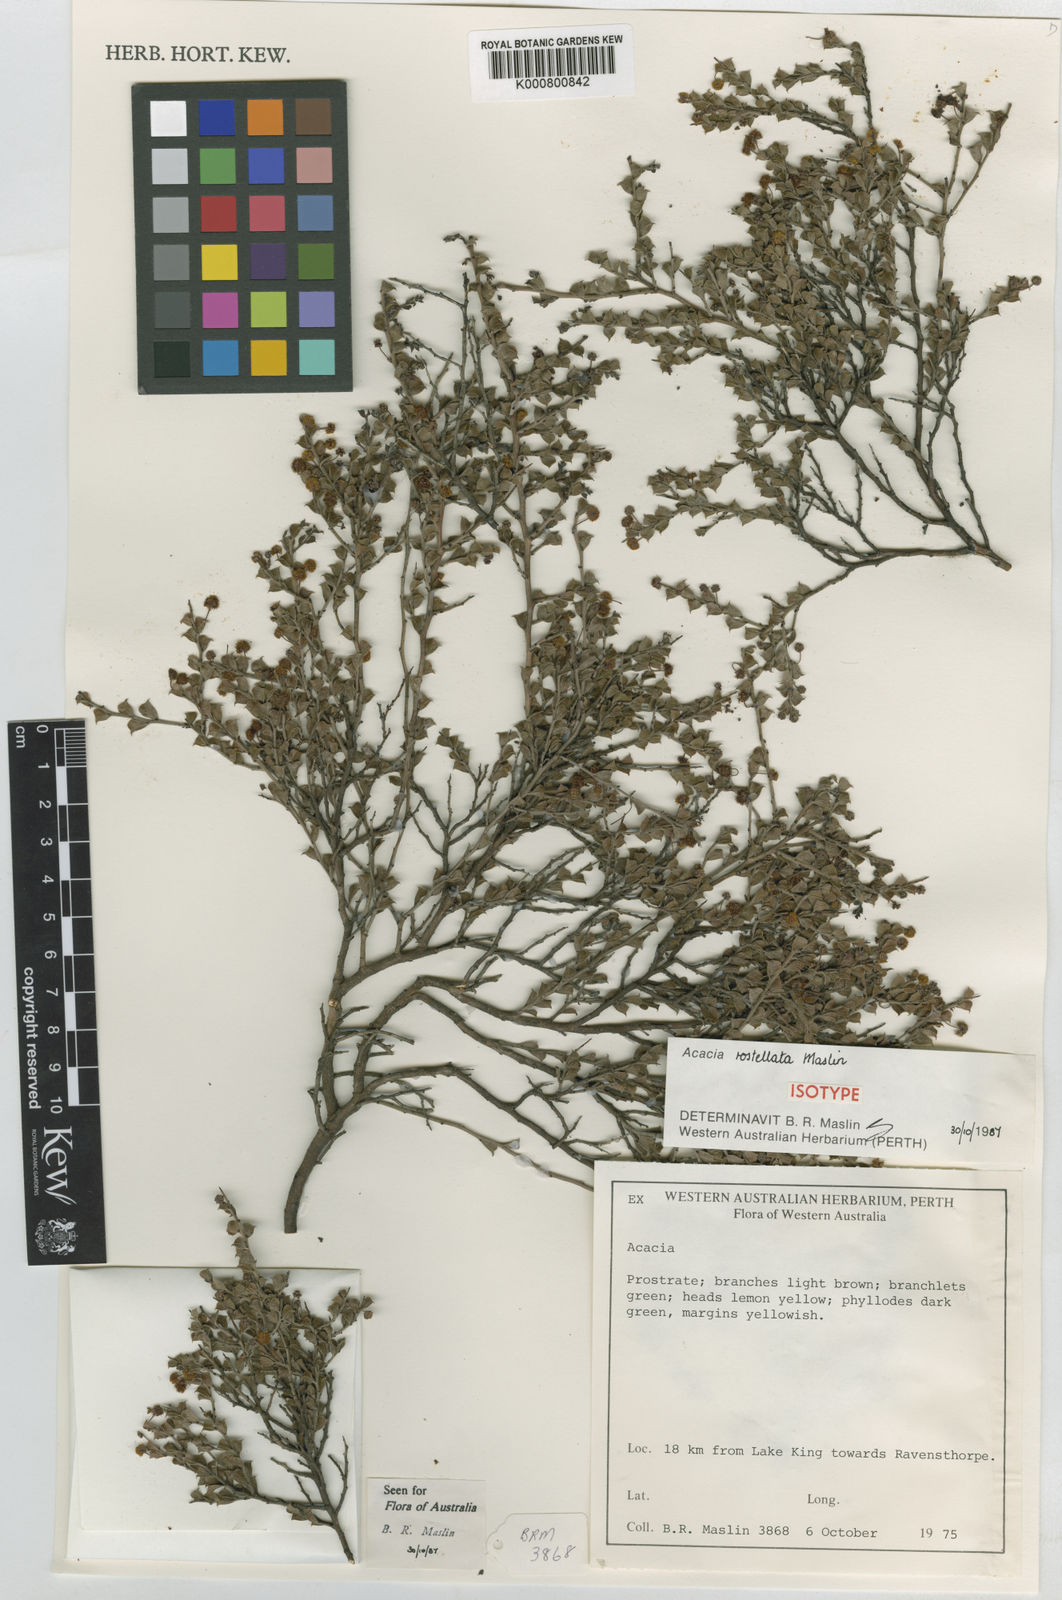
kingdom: Plantae
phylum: Tracheophyta
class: Magnoliopsida
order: Fabales
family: Fabaceae
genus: Acacia
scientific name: Acacia rostellata
